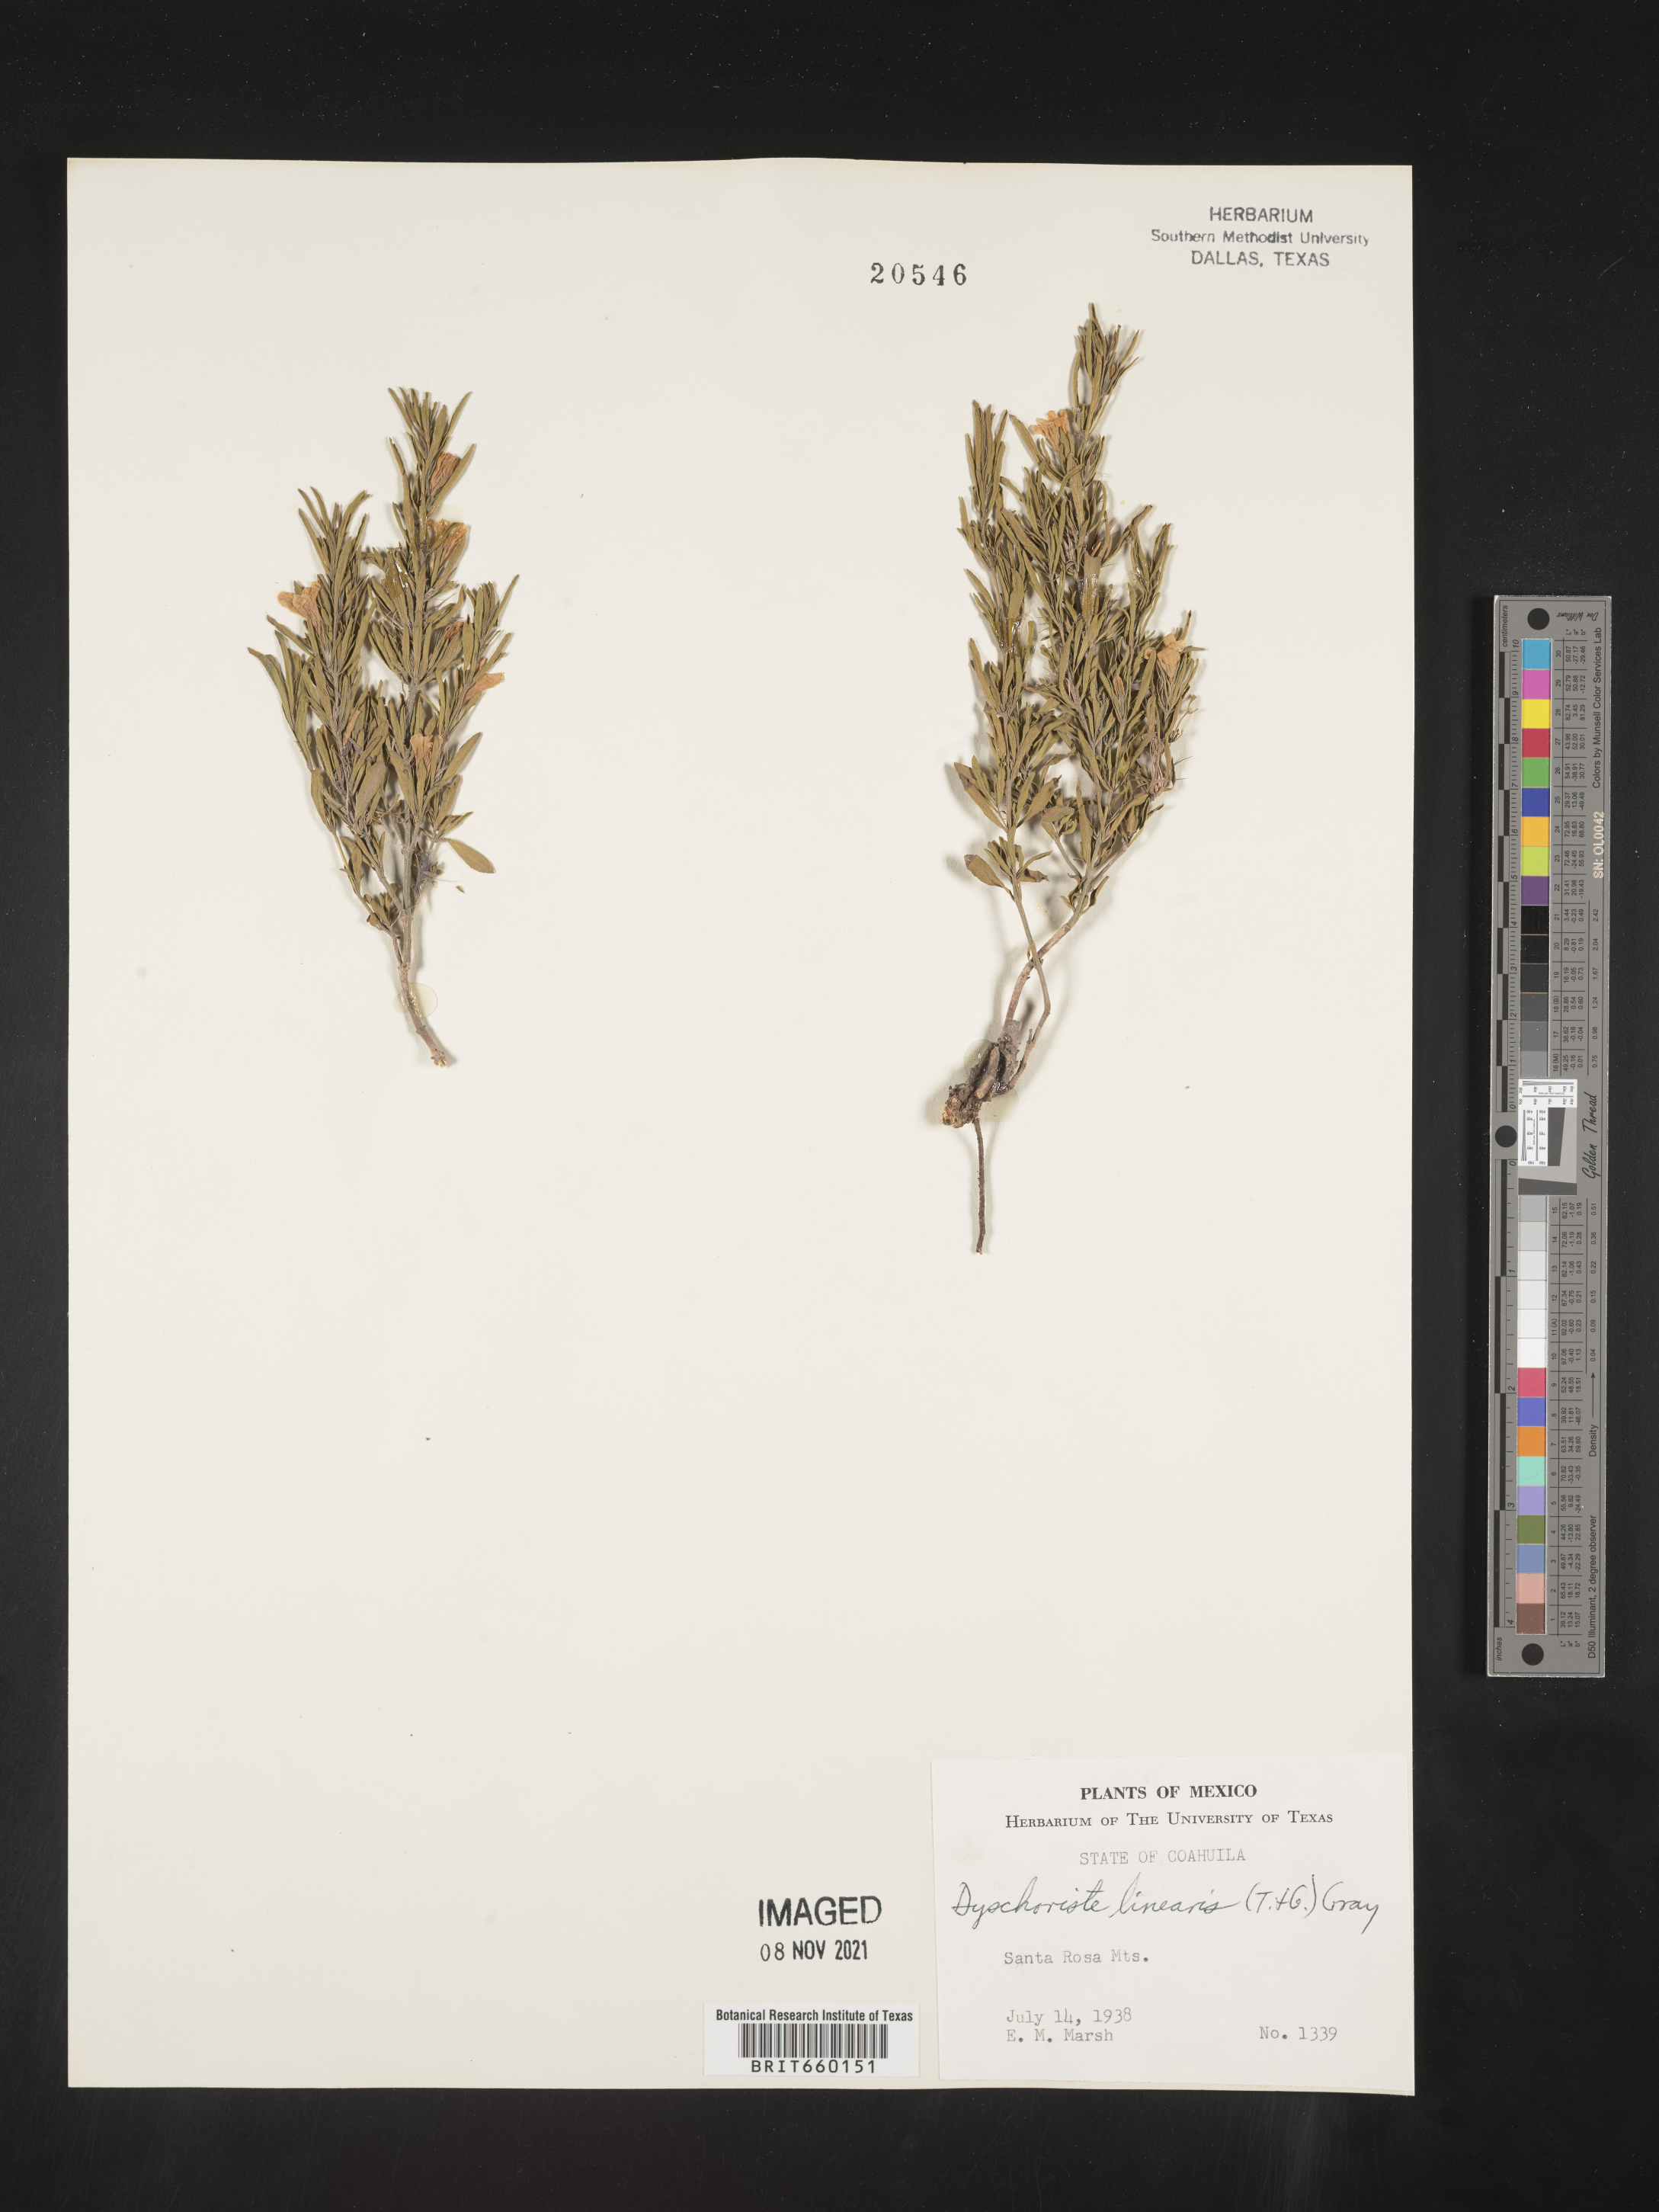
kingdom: Plantae
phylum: Tracheophyta
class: Magnoliopsida
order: Lamiales
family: Acanthaceae
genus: Dyschoriste
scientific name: Dyschoriste
